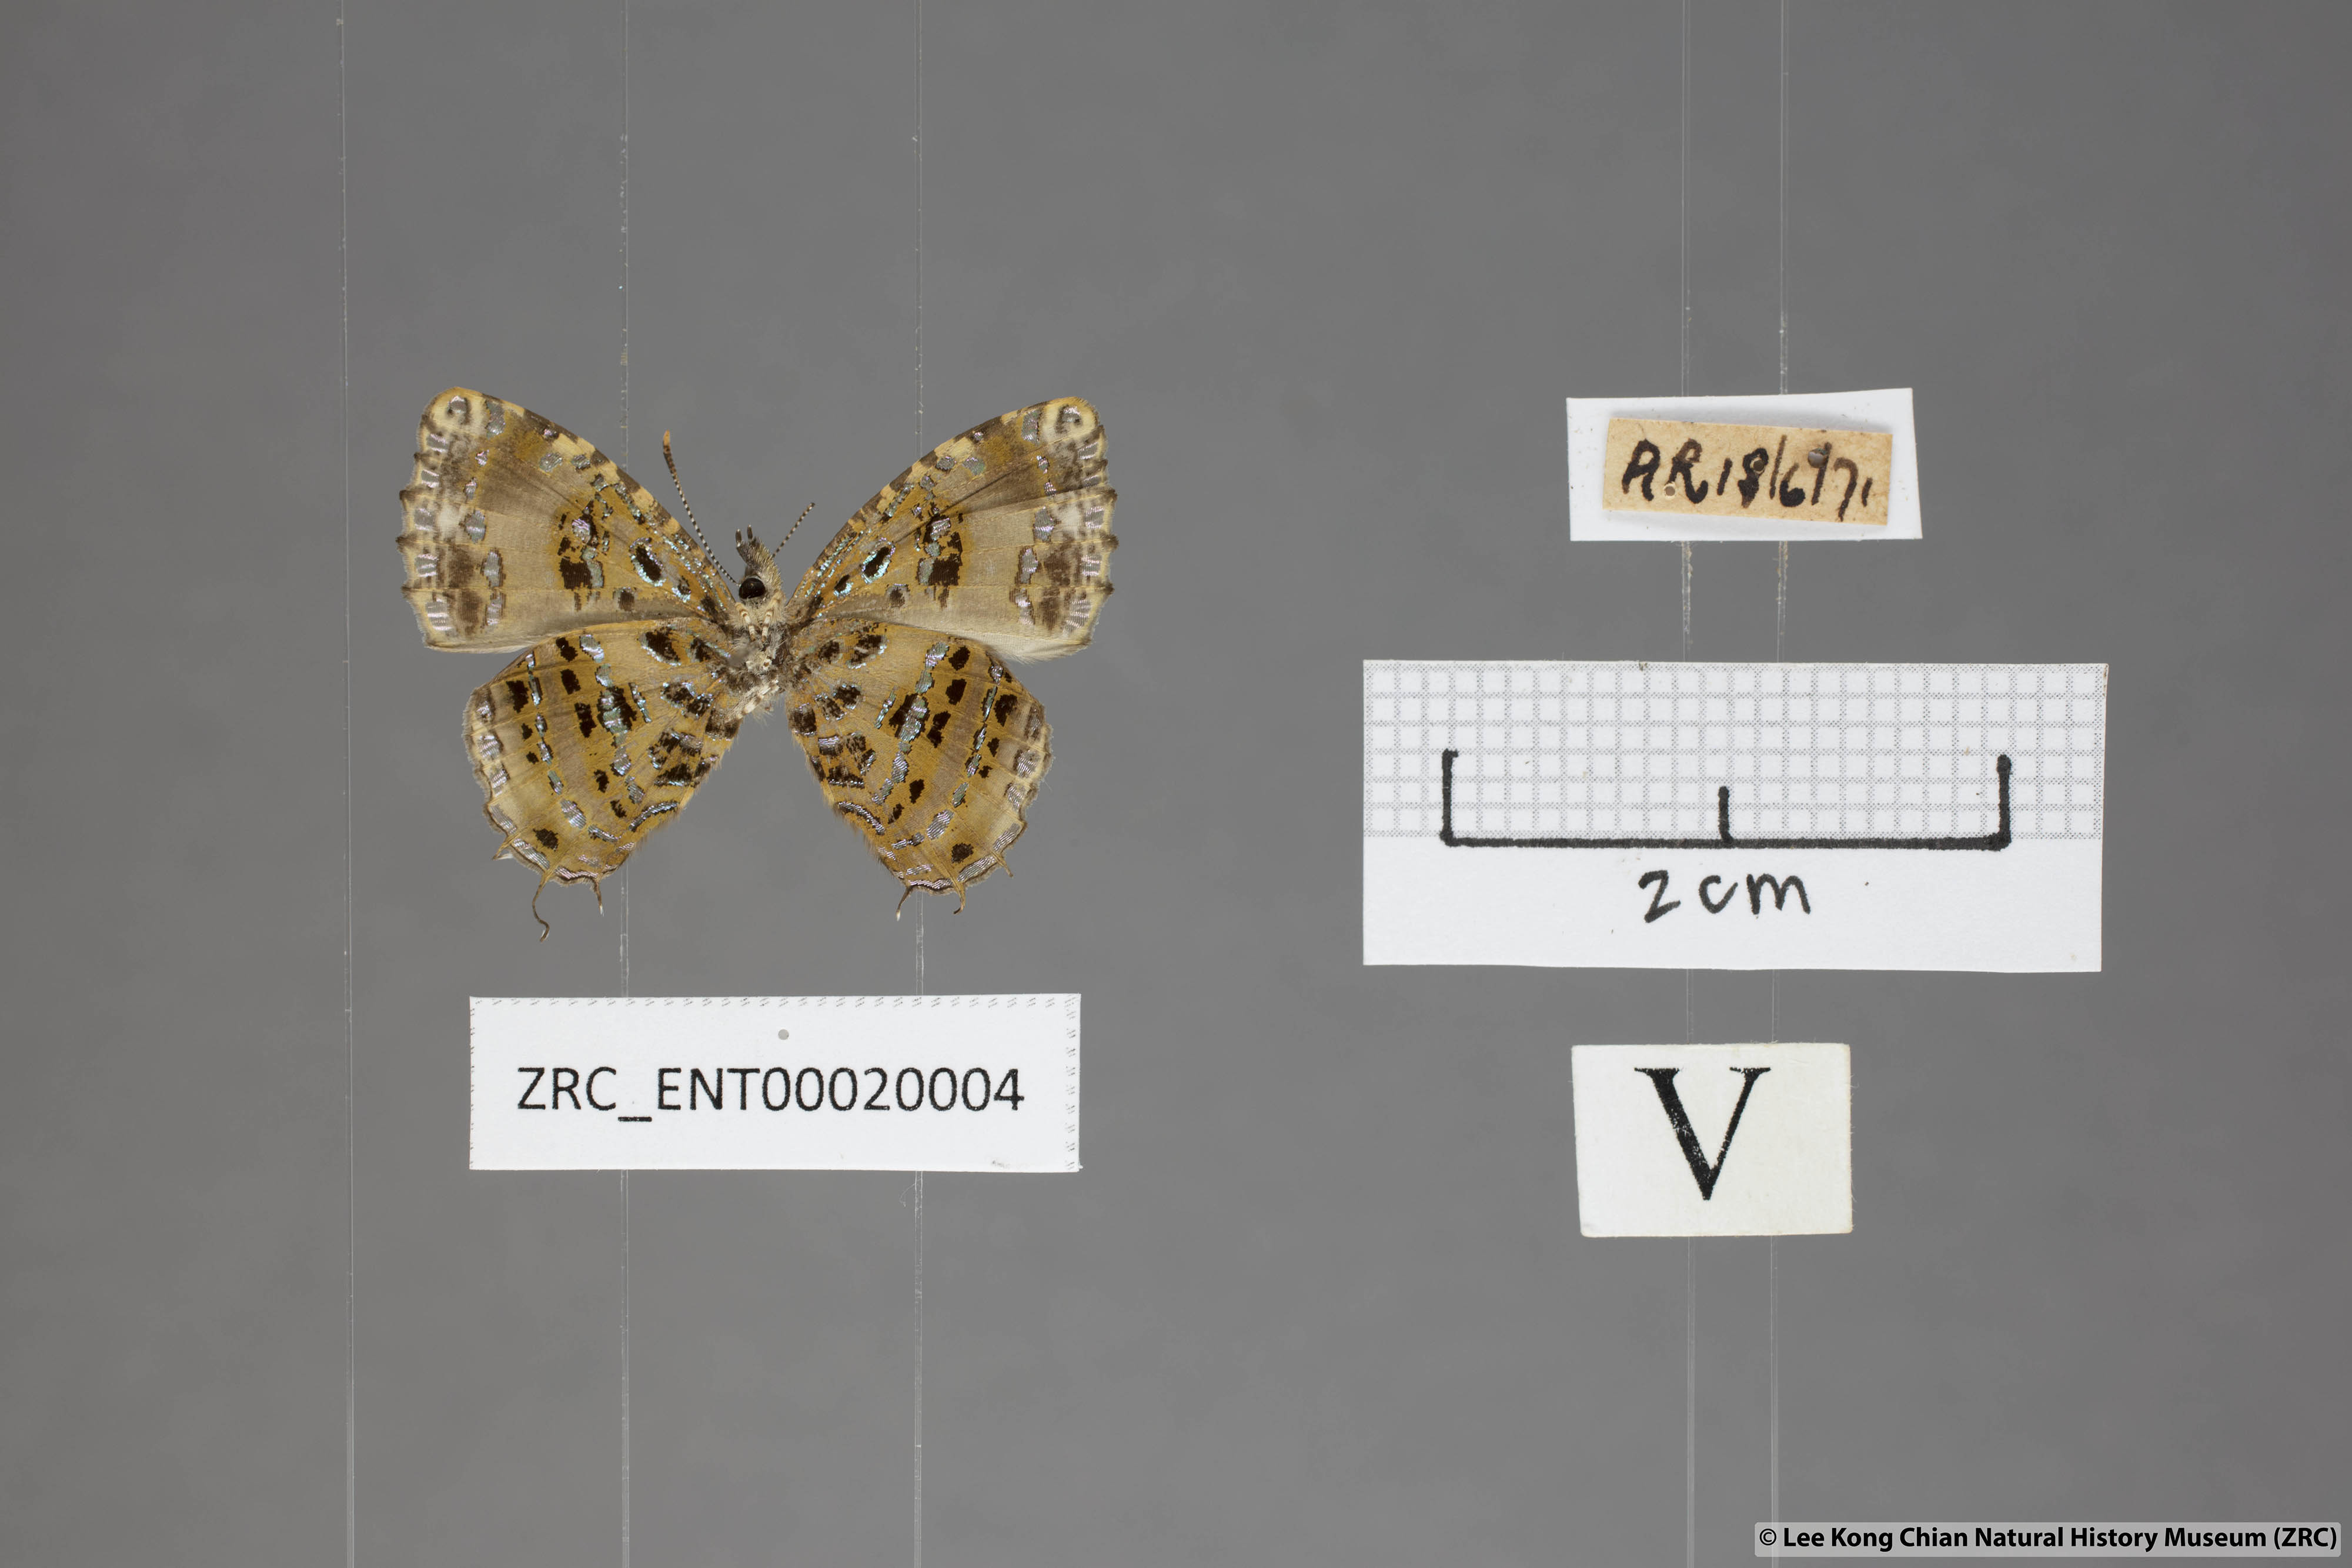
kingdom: Animalia
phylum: Arthropoda
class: Insecta
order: Lepidoptera
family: Lycaenidae
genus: Catapaecilma
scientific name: Catapaecilma elegans
